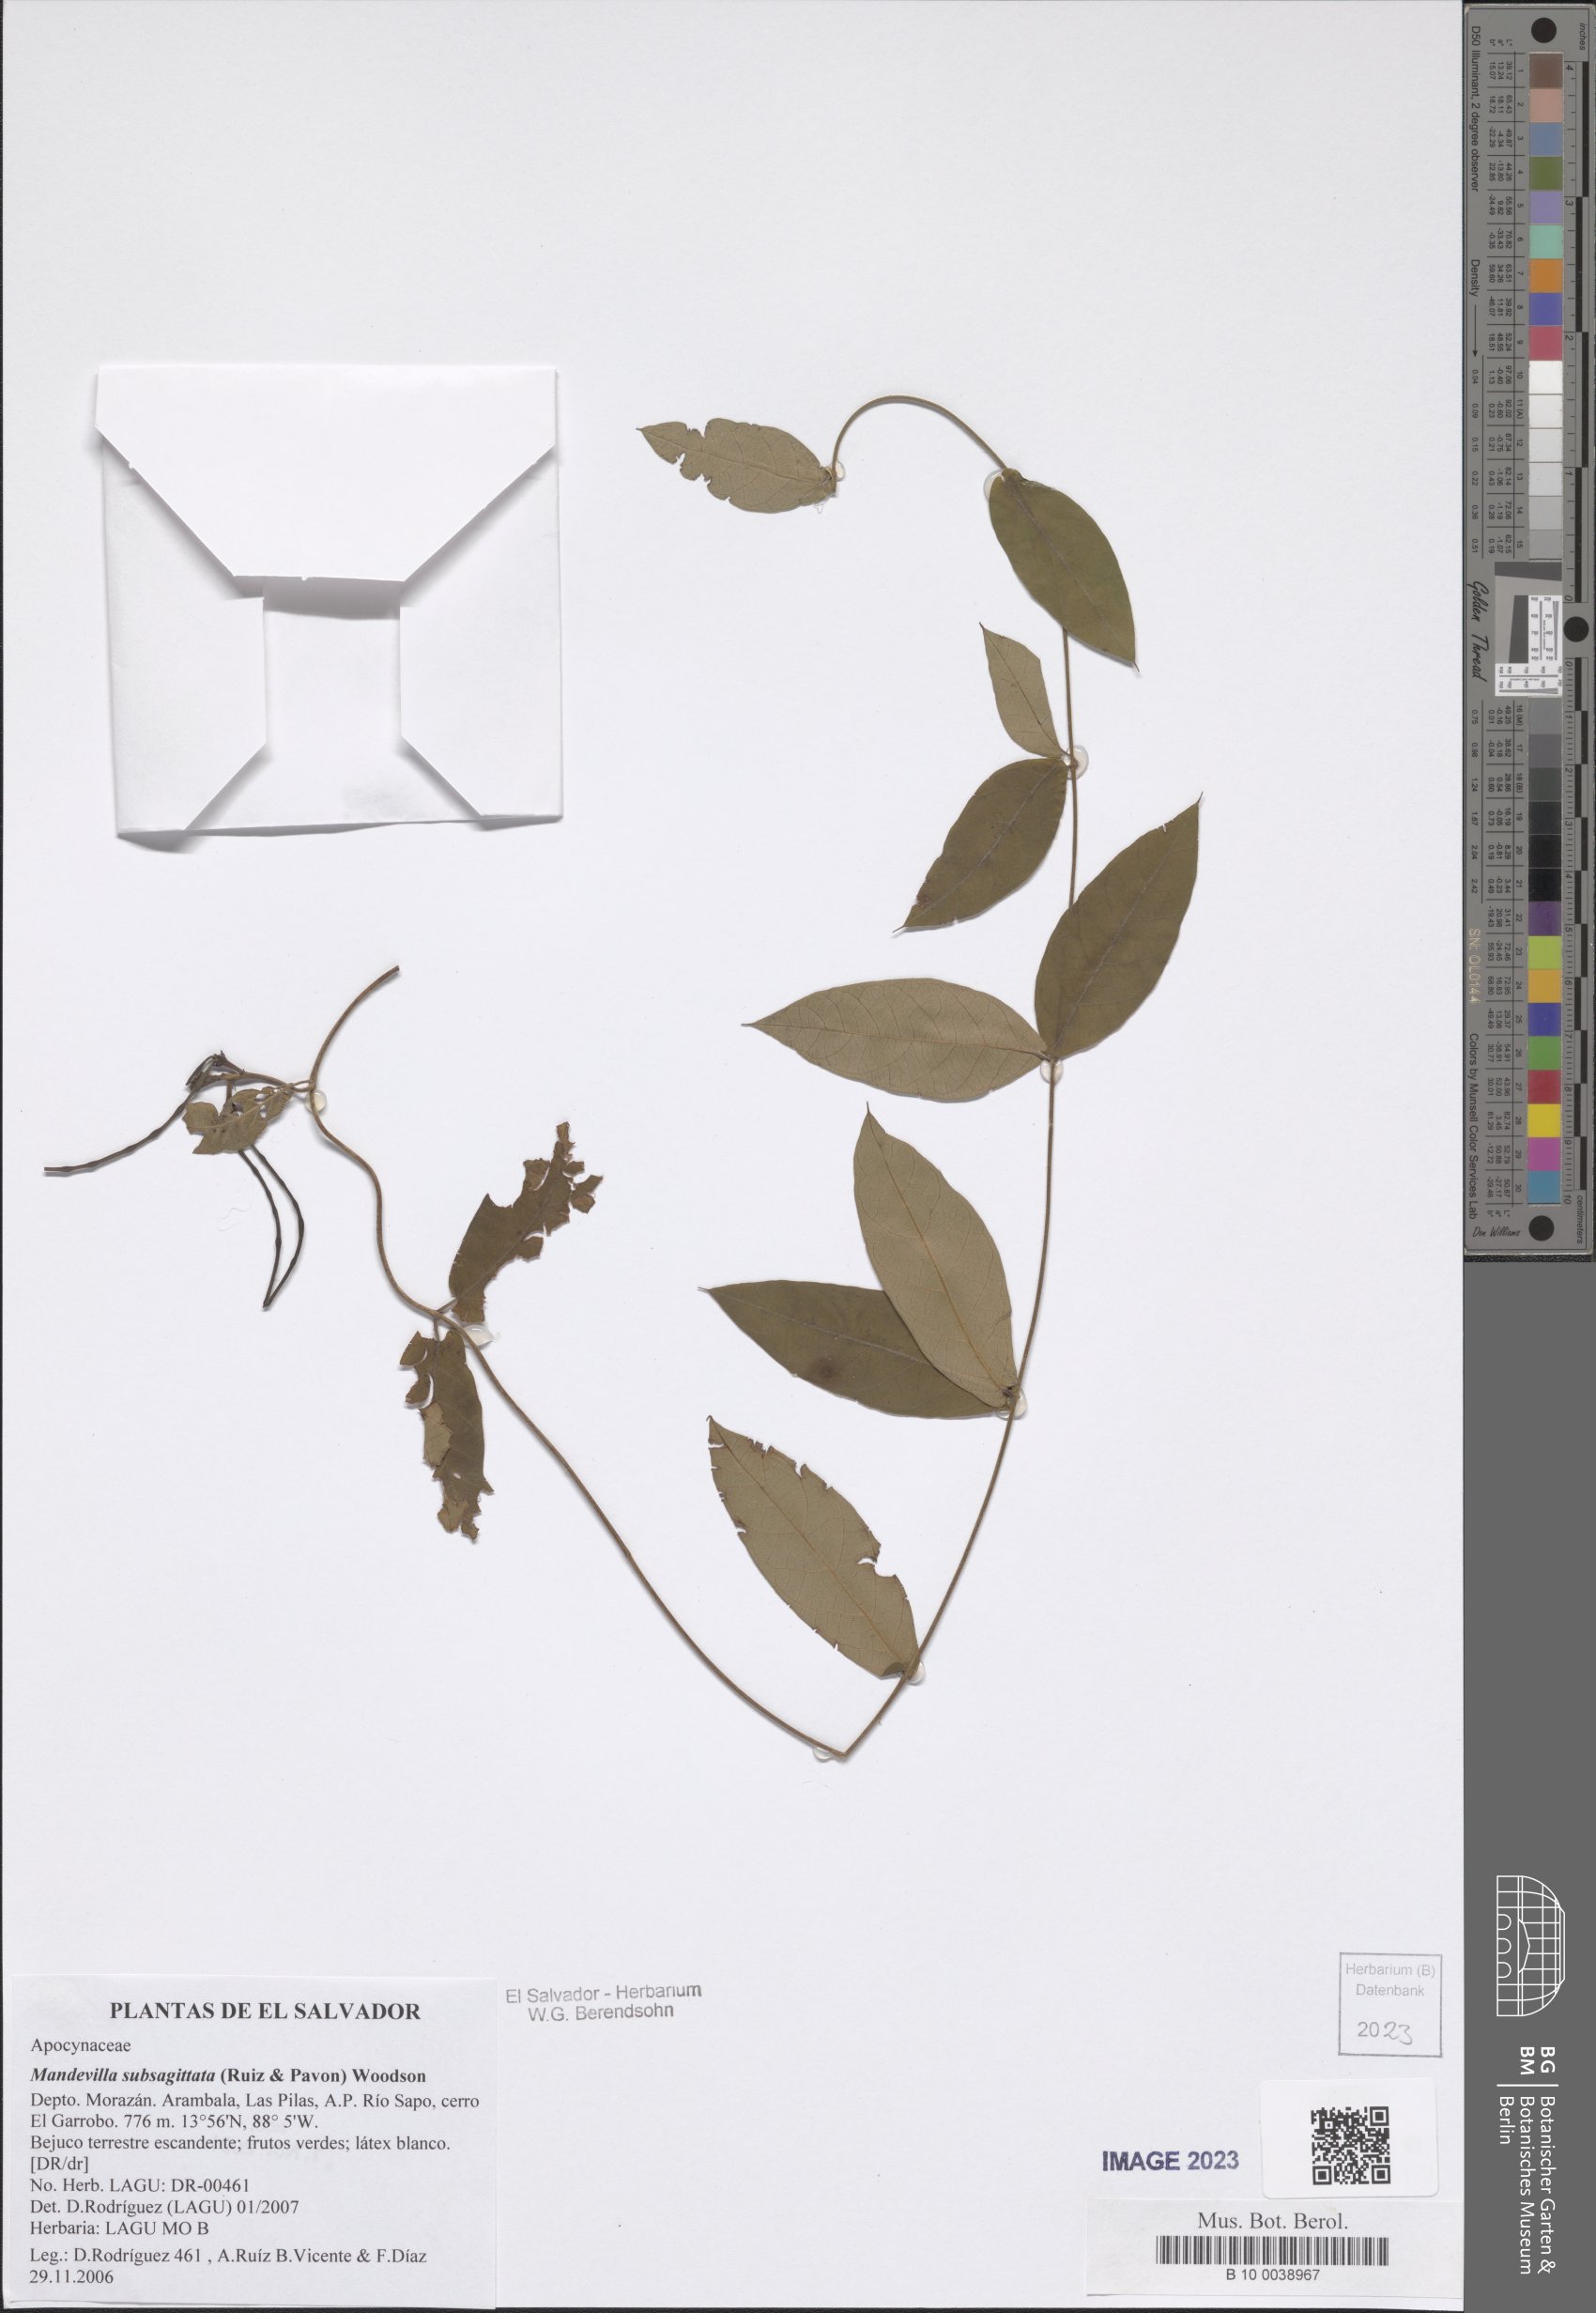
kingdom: Plantae
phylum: Tracheophyta
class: Magnoliopsida
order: Gentianales
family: Apocynaceae
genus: Mandevilla
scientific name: Mandevilla subsagittata
